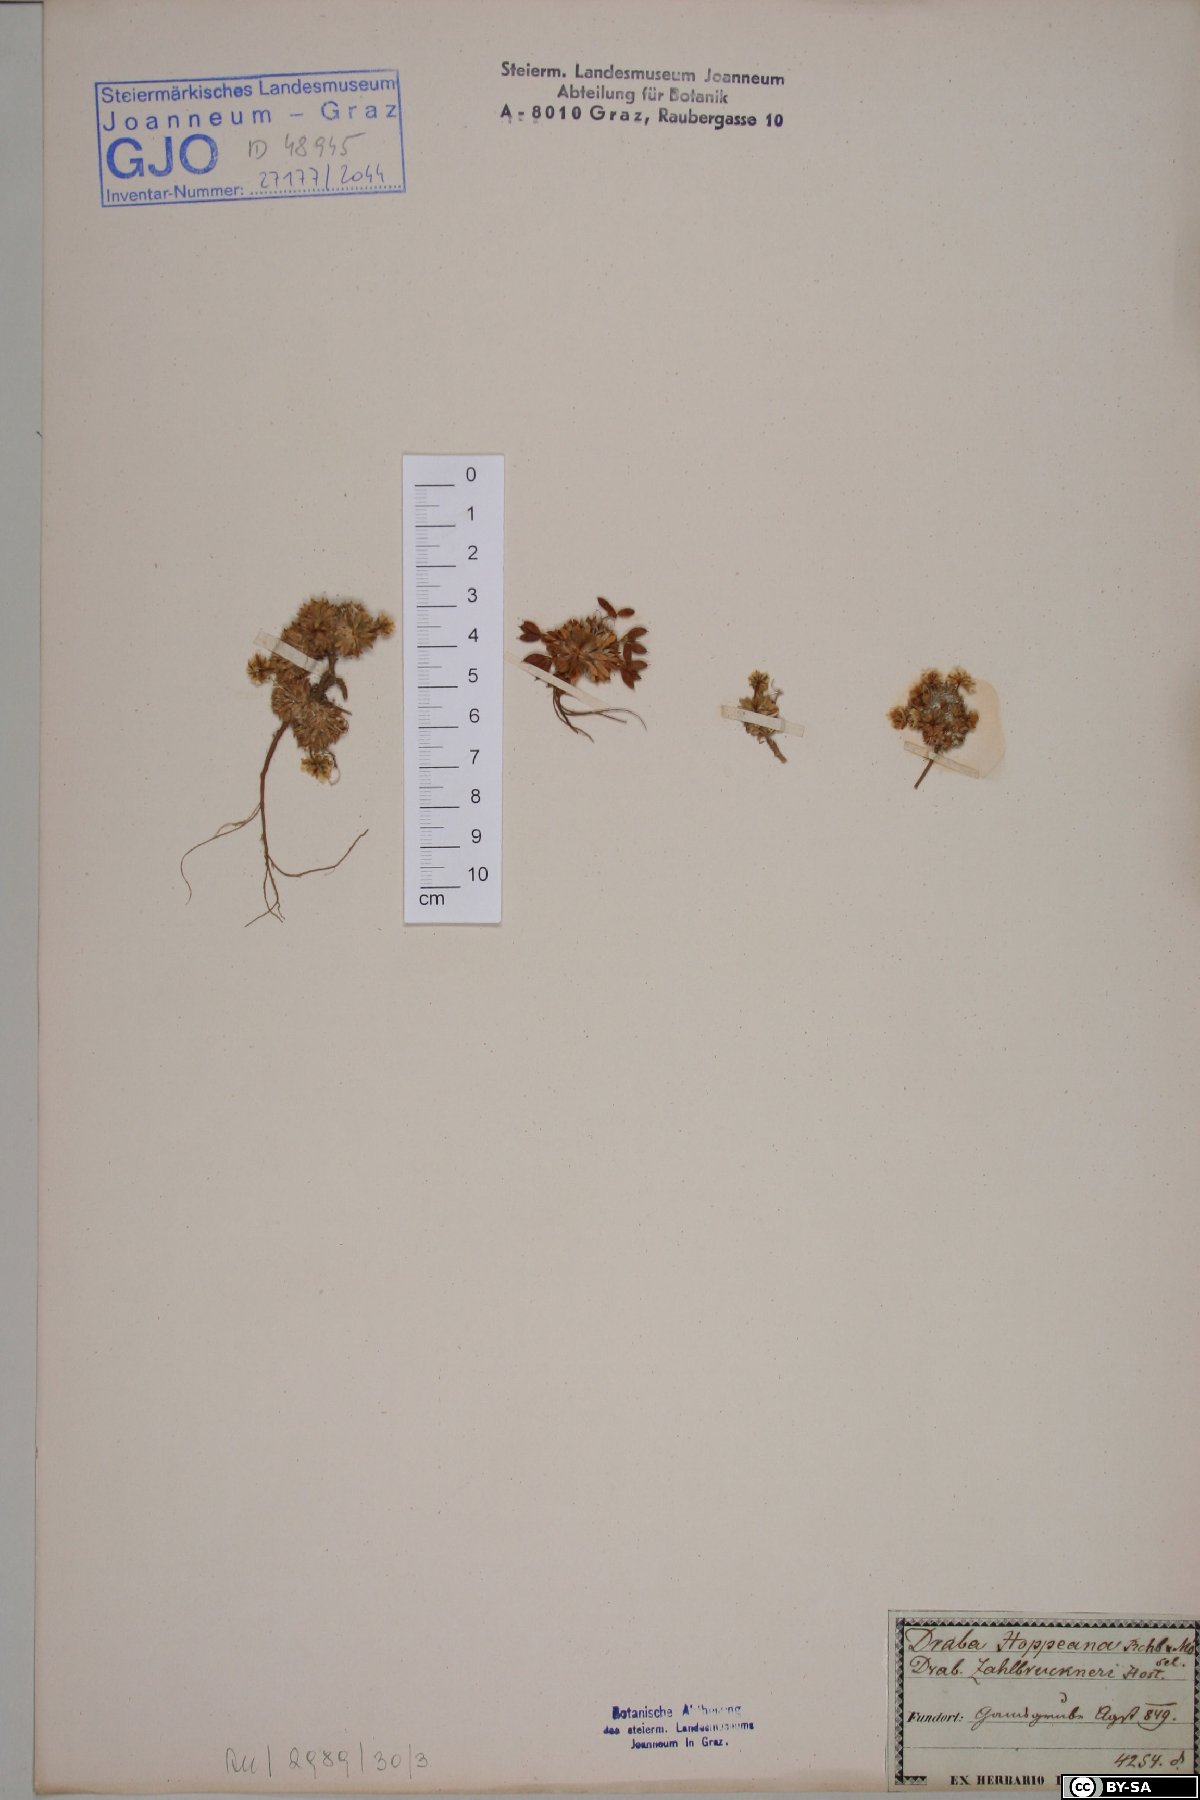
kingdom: Plantae
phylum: Tracheophyta
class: Magnoliopsida
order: Brassicales
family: Brassicaceae
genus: Draba
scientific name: Draba hoppeana
